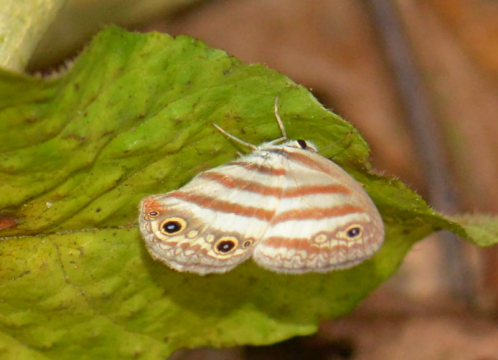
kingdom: Animalia
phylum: Arthropoda
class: Insecta
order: Lepidoptera
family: Nymphalidae
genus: Euptychia
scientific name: Euptychia mollina
